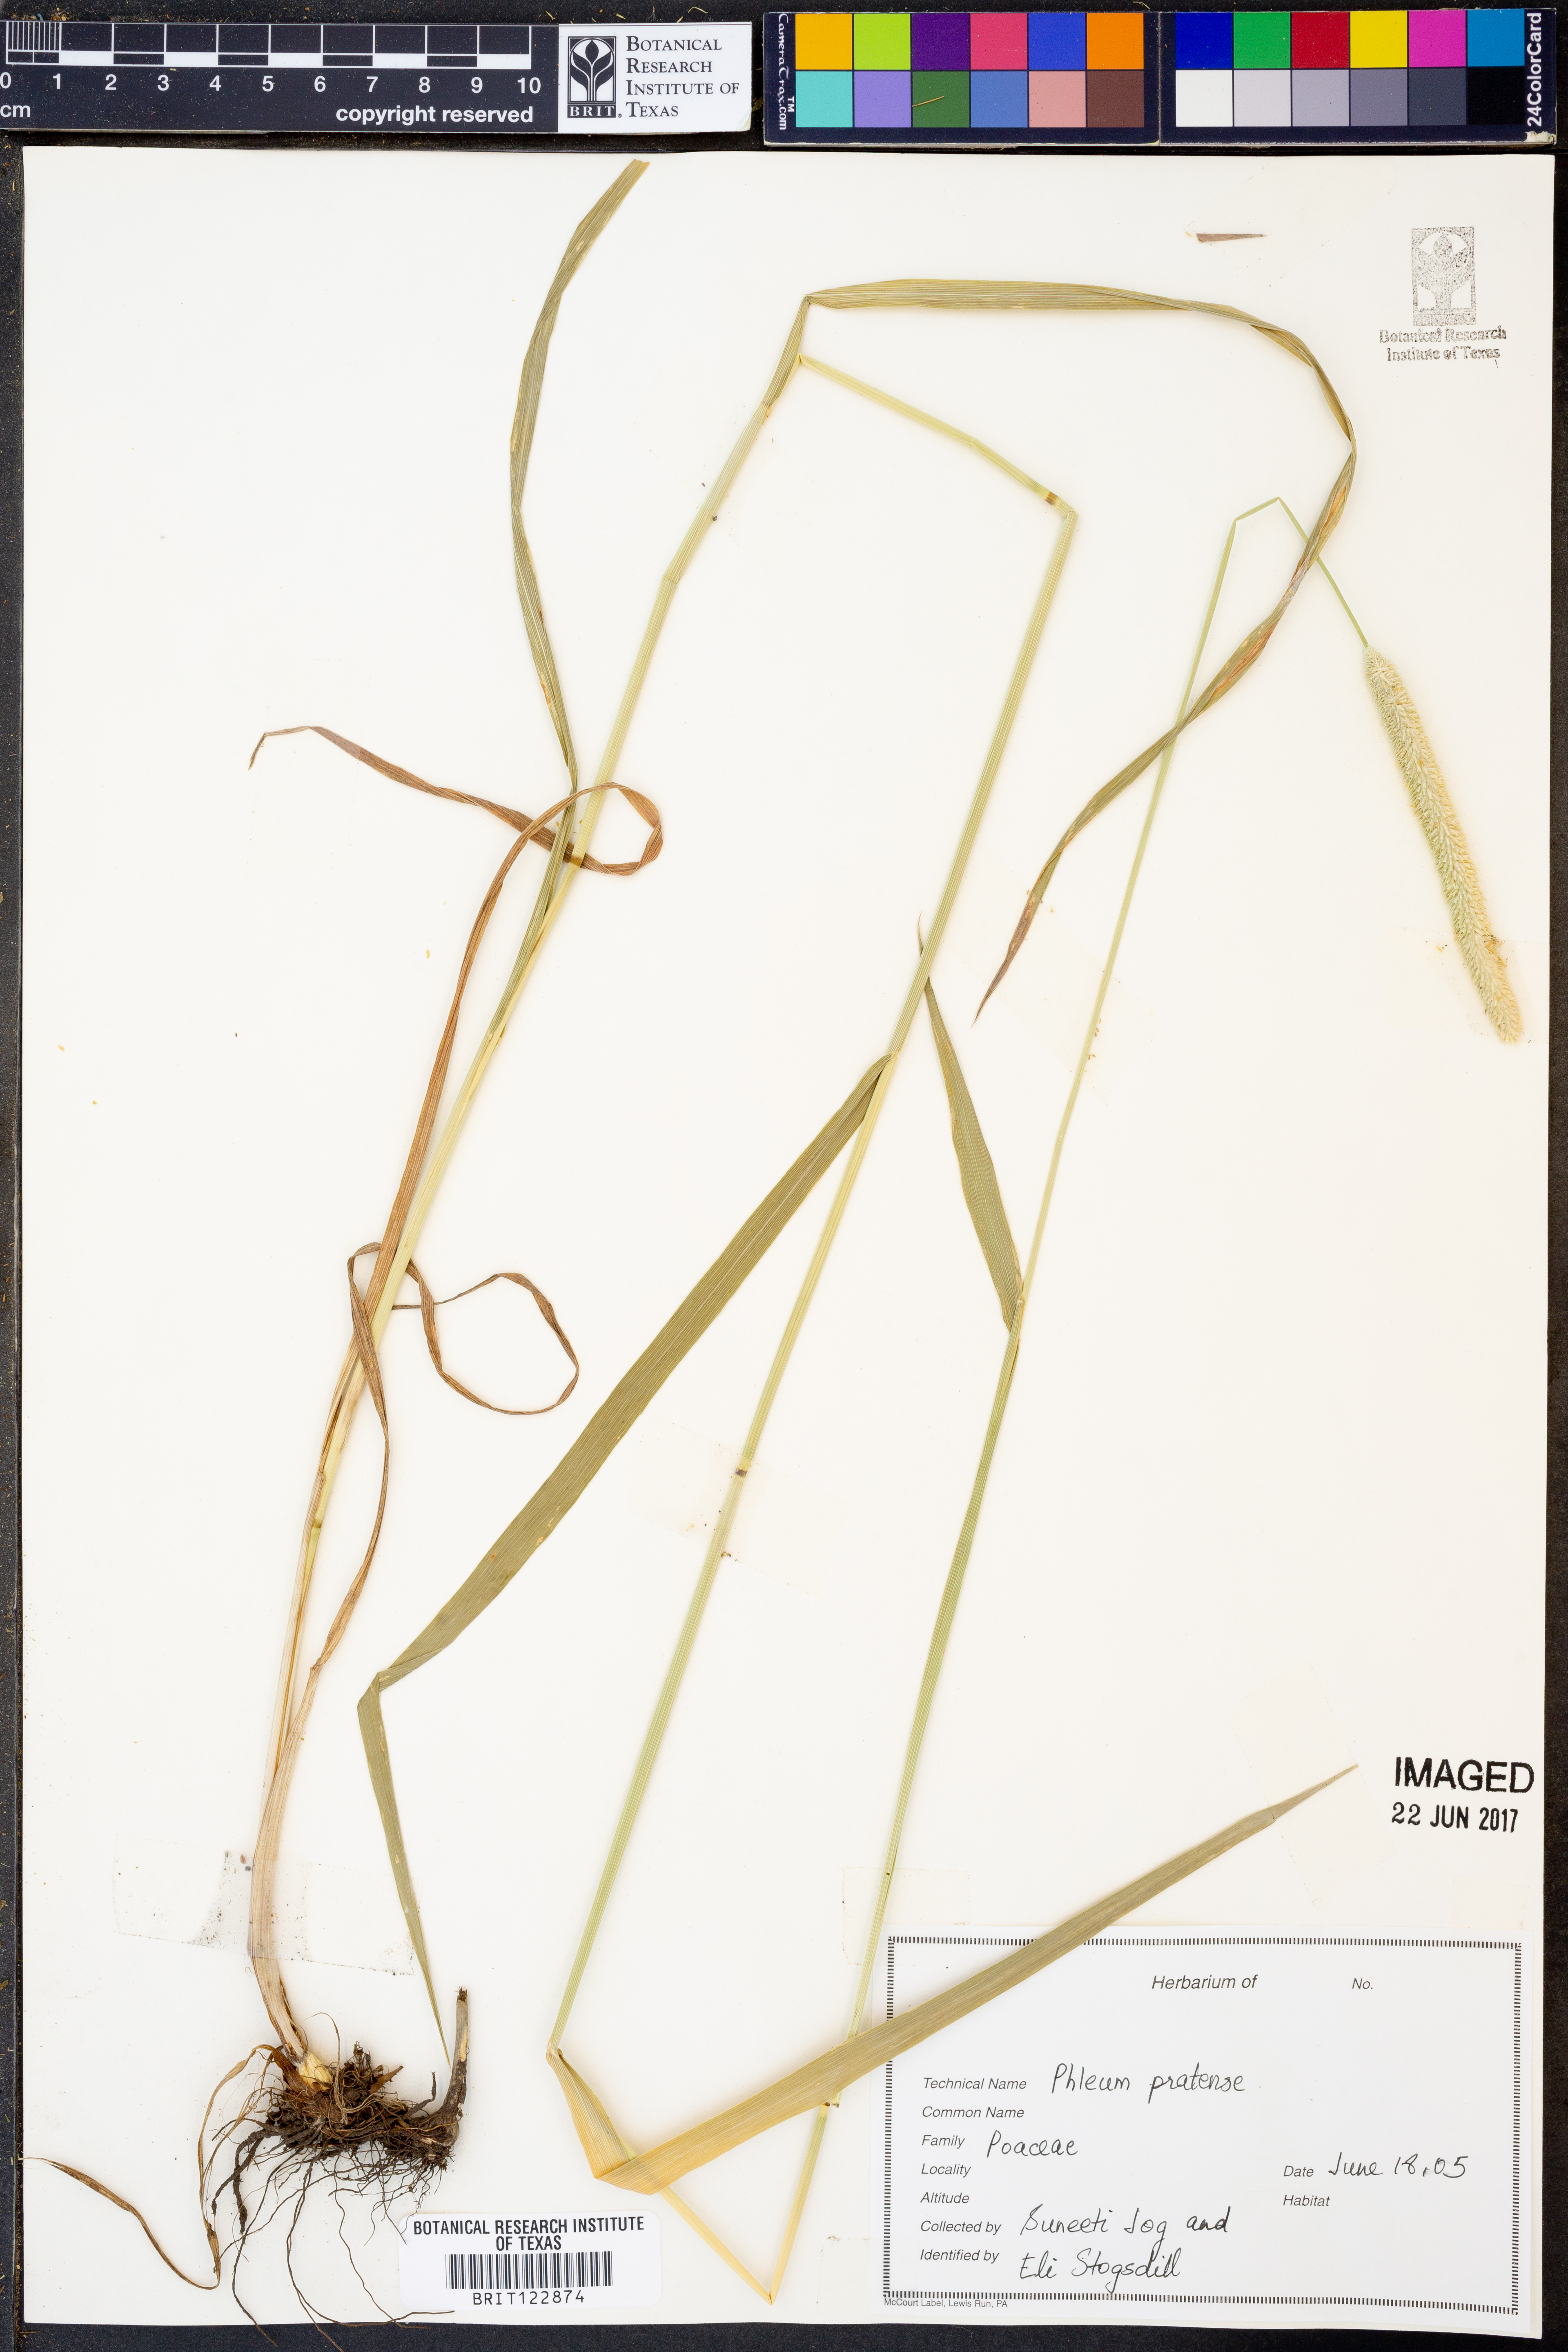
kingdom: Plantae
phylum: Tracheophyta
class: Liliopsida
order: Poales
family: Poaceae
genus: Phleum
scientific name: Phleum pratense
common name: Timothy grass
